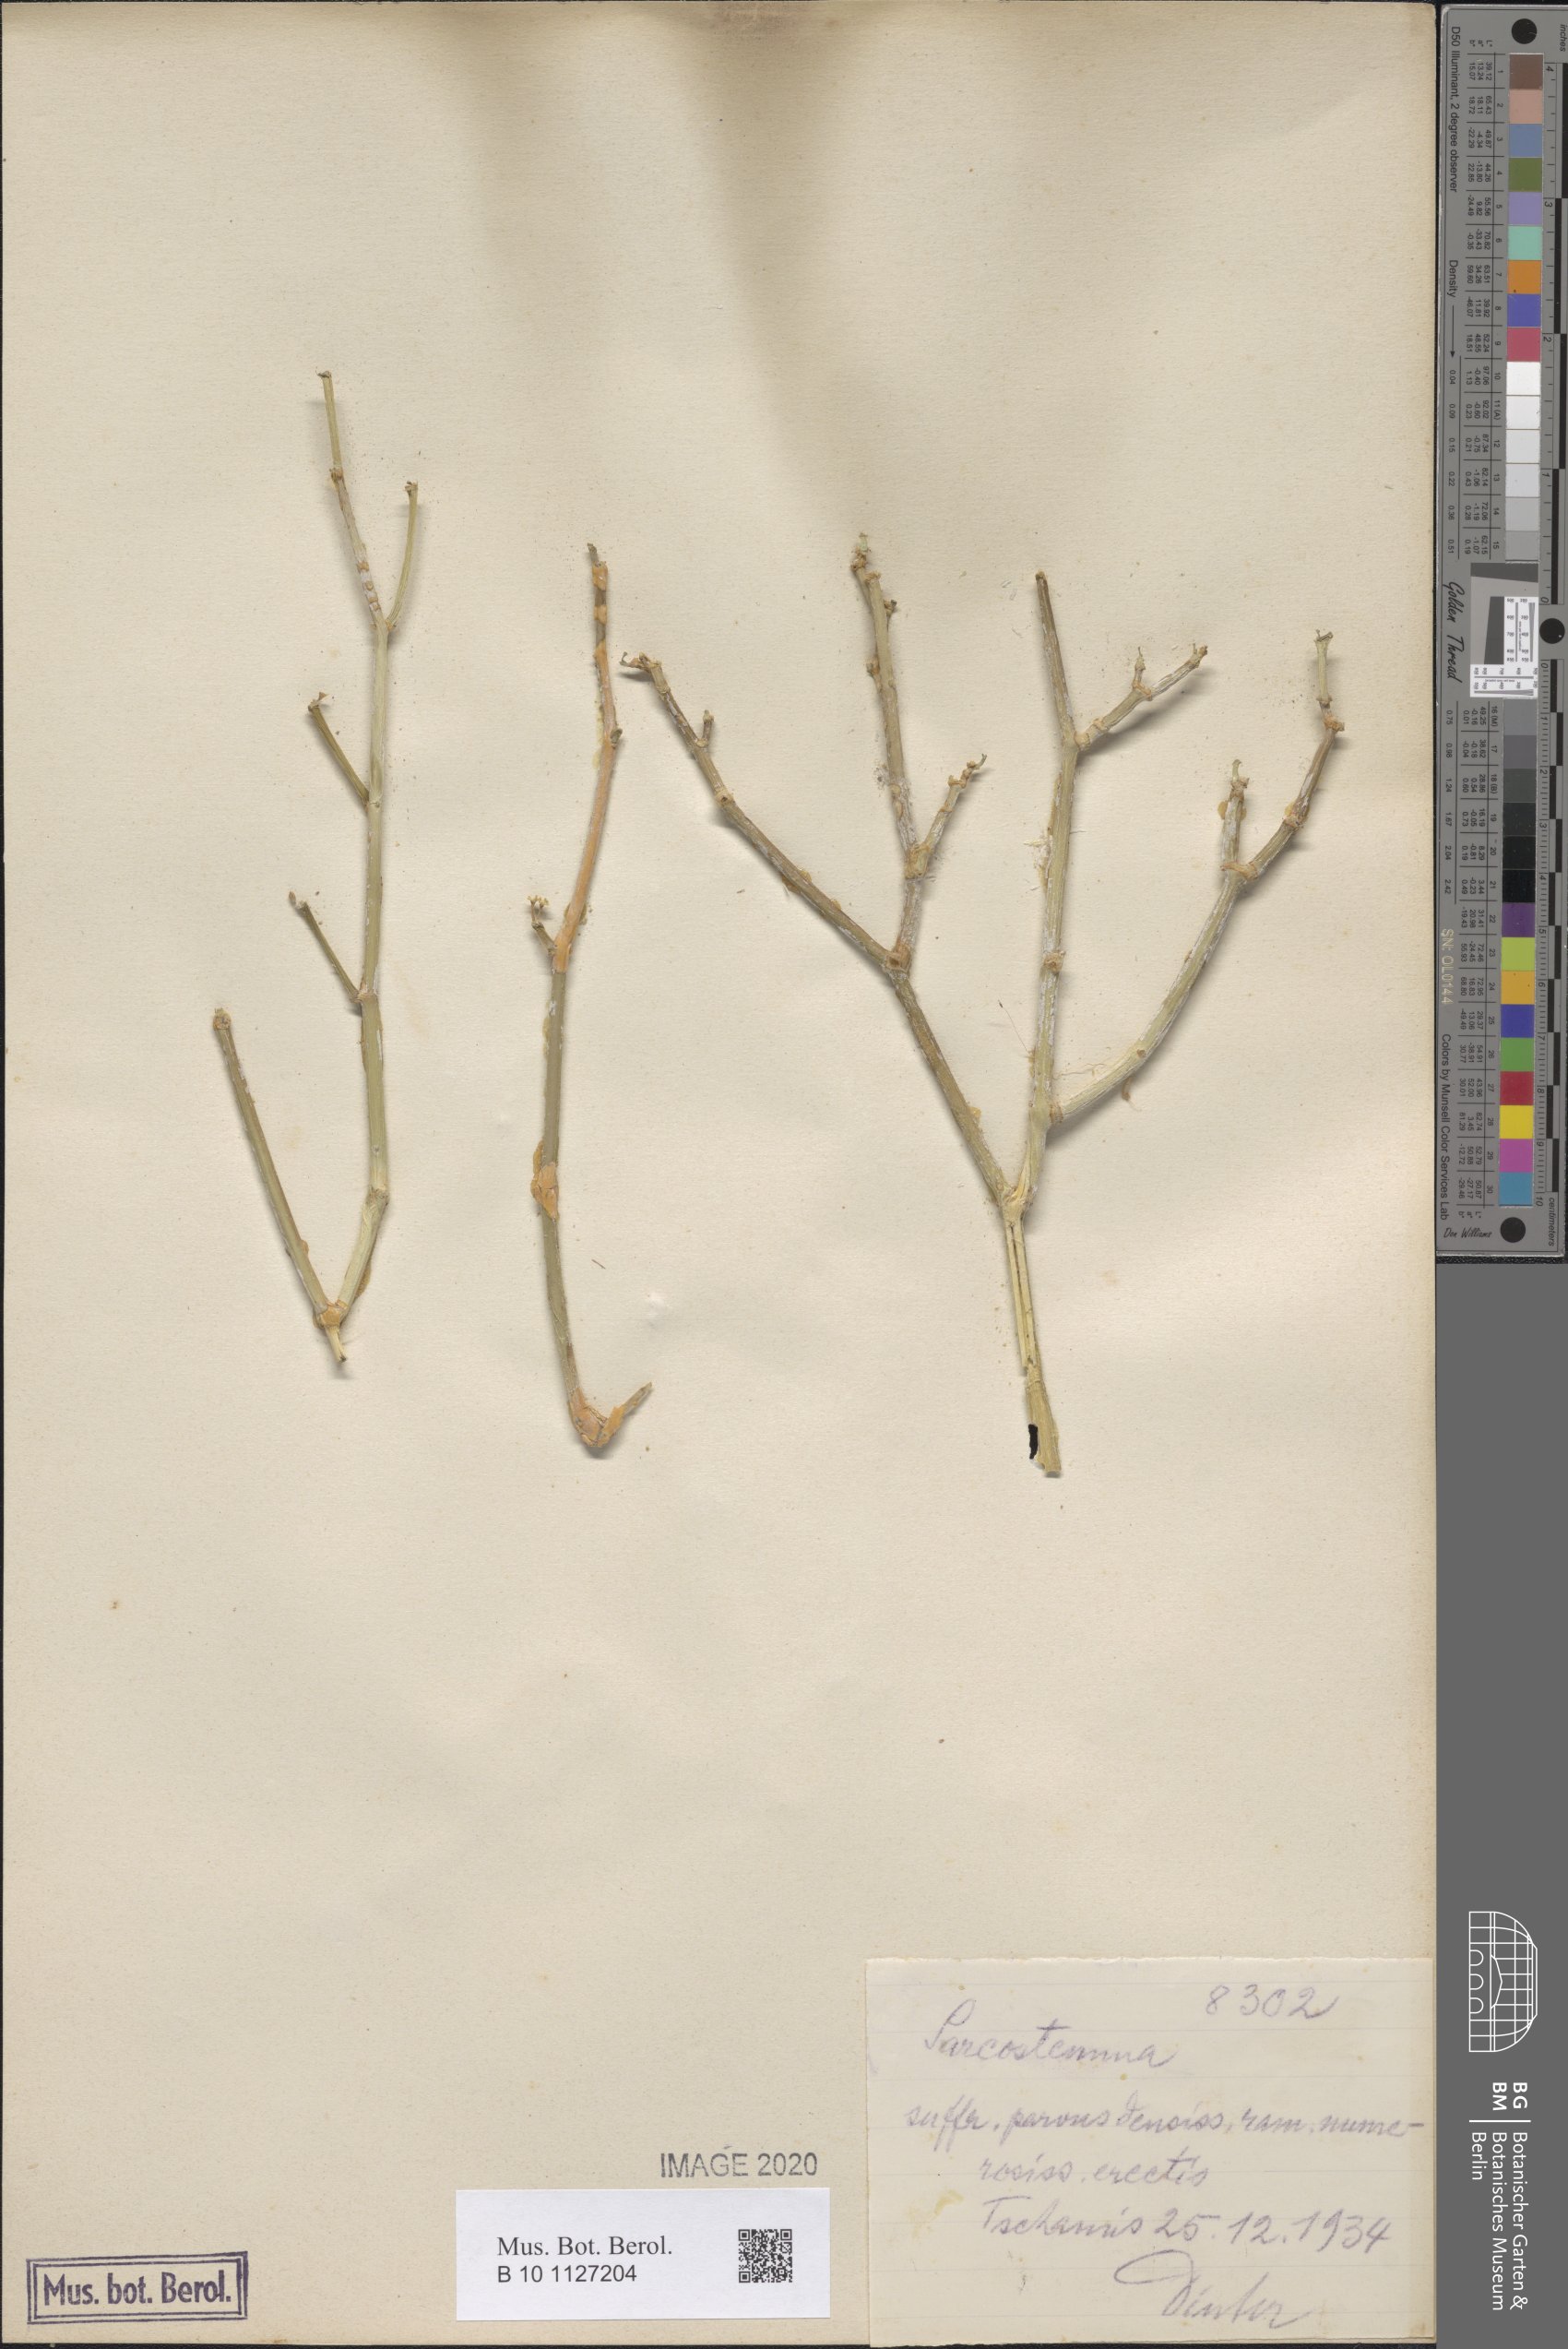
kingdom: Plantae
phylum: Tracheophyta
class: Magnoliopsida
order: Gentianales
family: Apocynaceae
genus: Cynanchum
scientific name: Cynanchum
